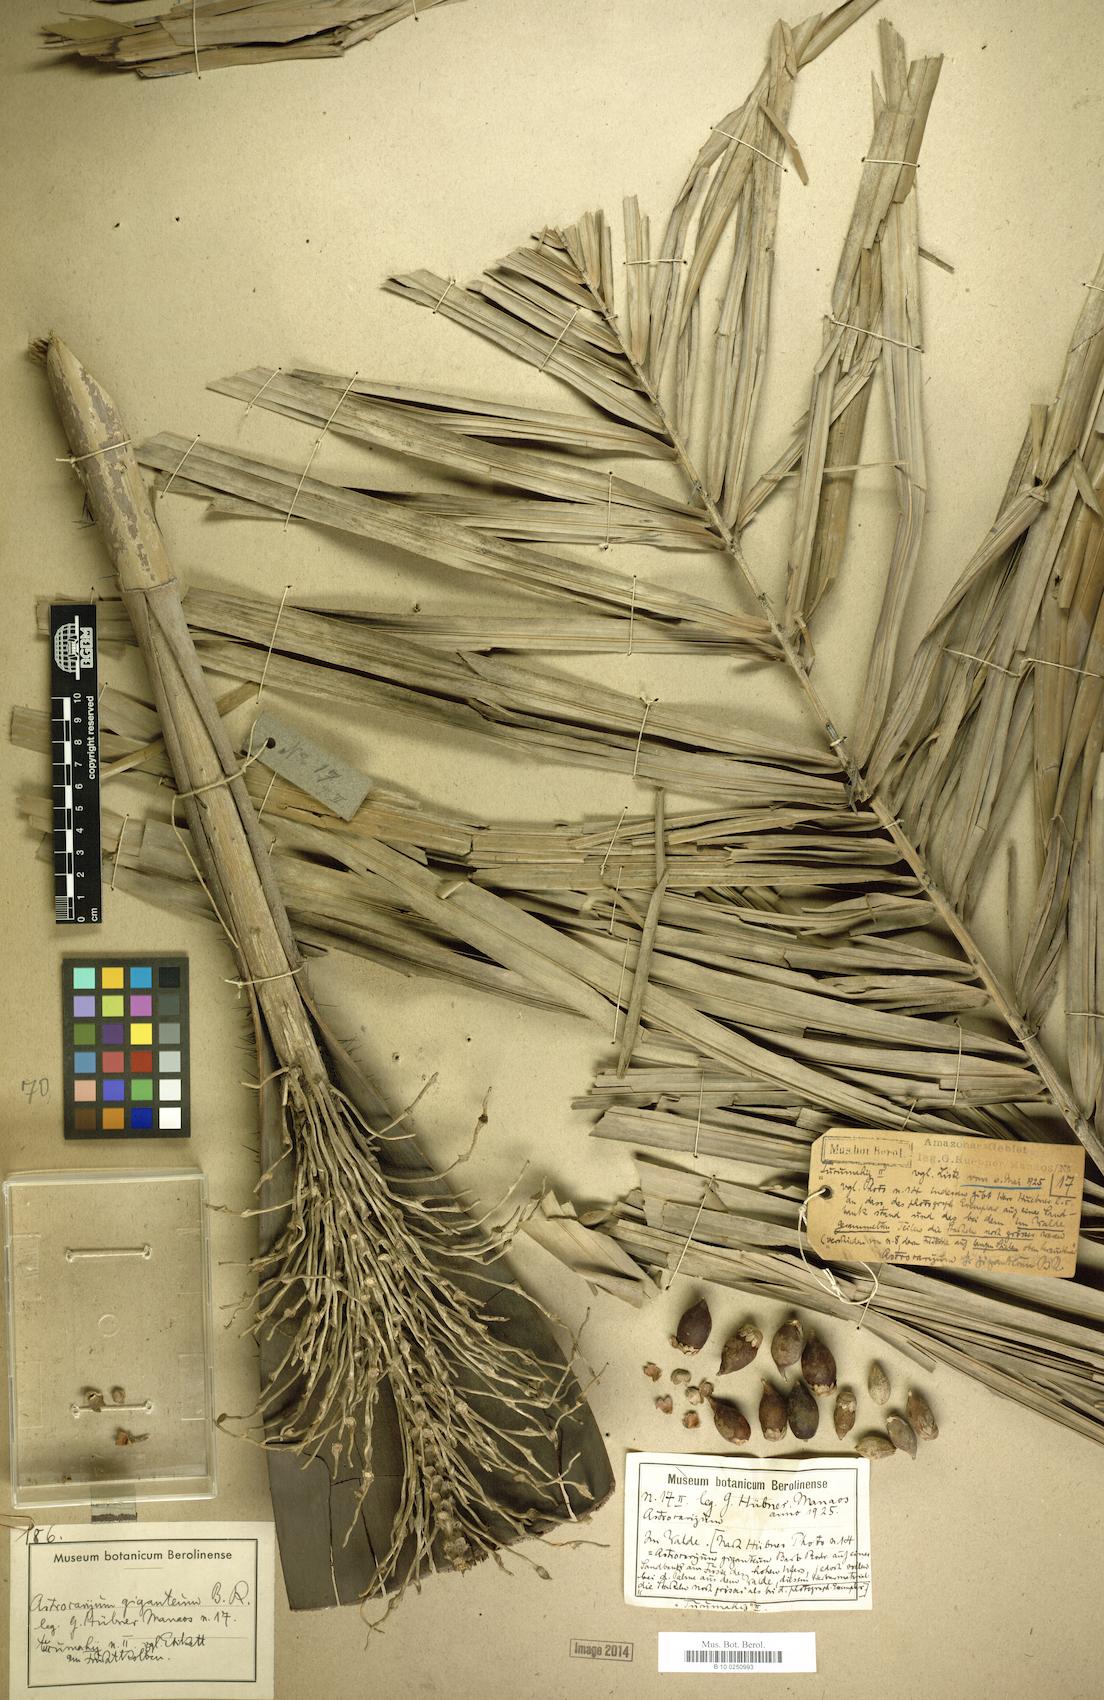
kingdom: Plantae
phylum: Tracheophyta
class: Liliopsida
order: Arecales
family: Arecaceae
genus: Astrocaryum
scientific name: Astrocaryum giganteum
